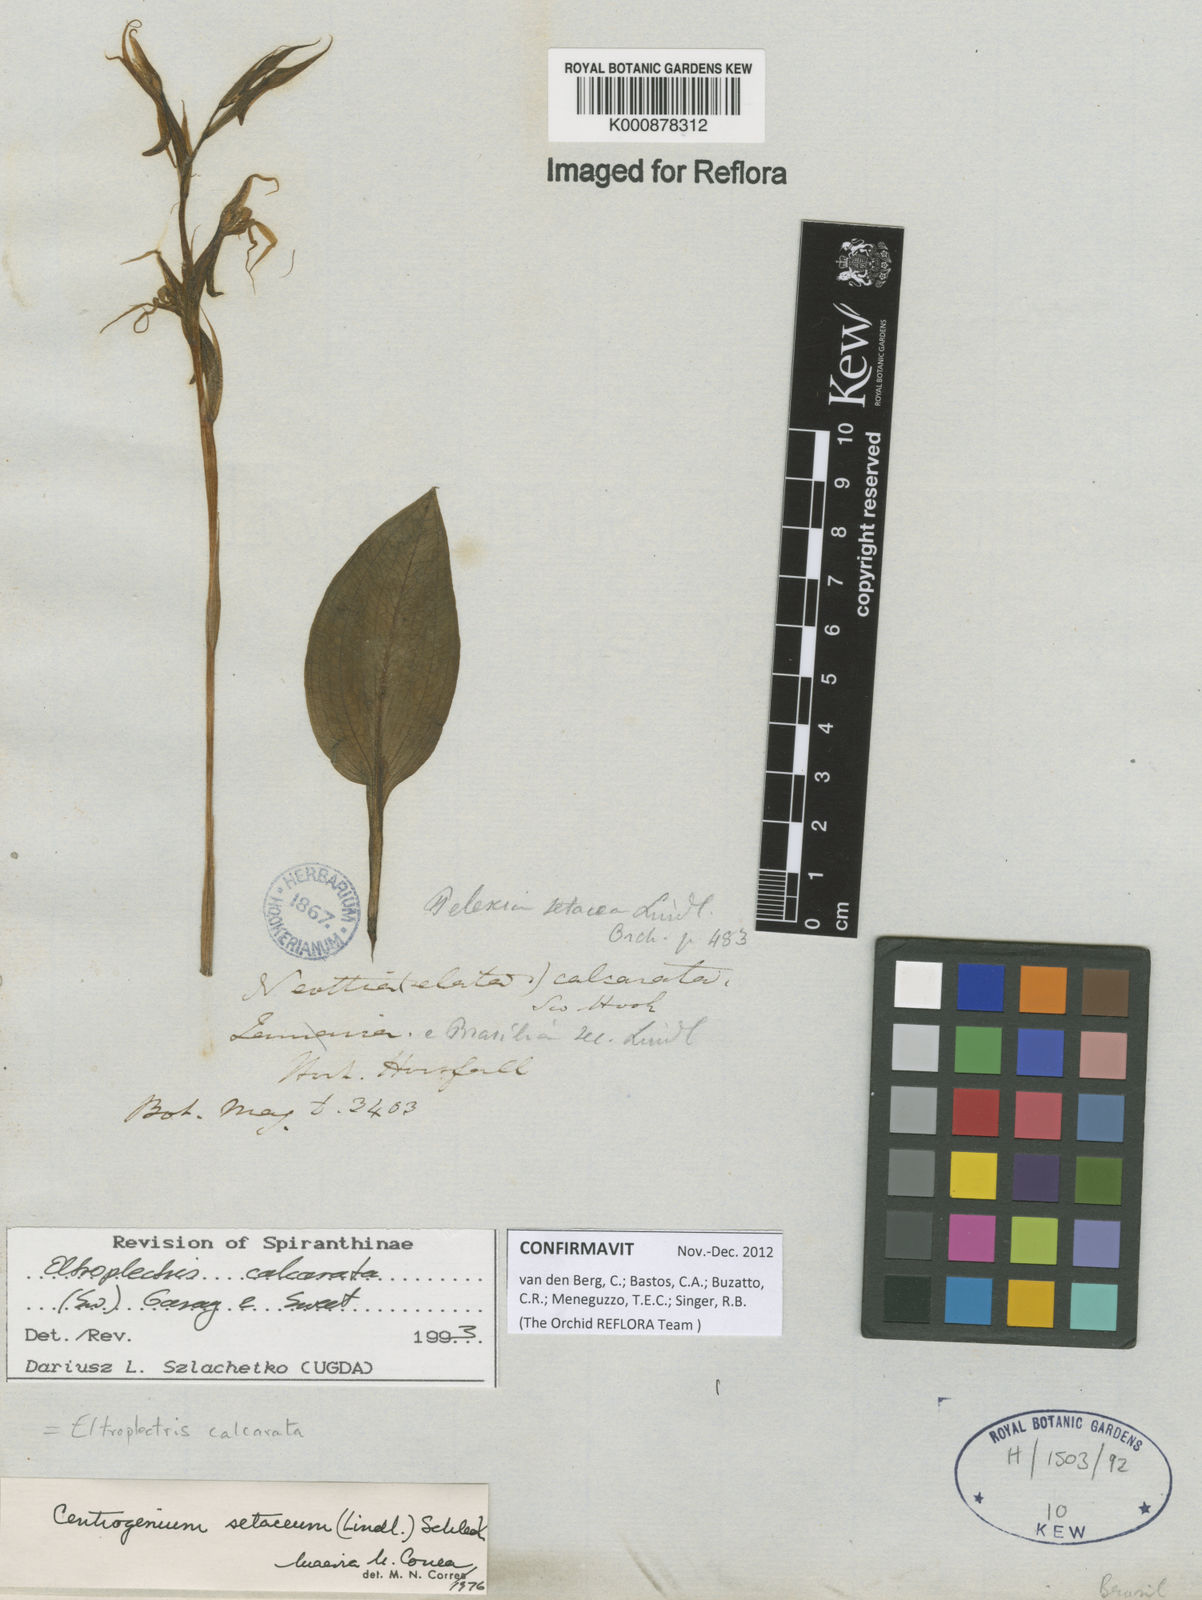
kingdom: Plantae
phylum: Tracheophyta
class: Liliopsida
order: Asparagales
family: Orchidaceae
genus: Eltroplectris
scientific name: Eltroplectris calcarata
